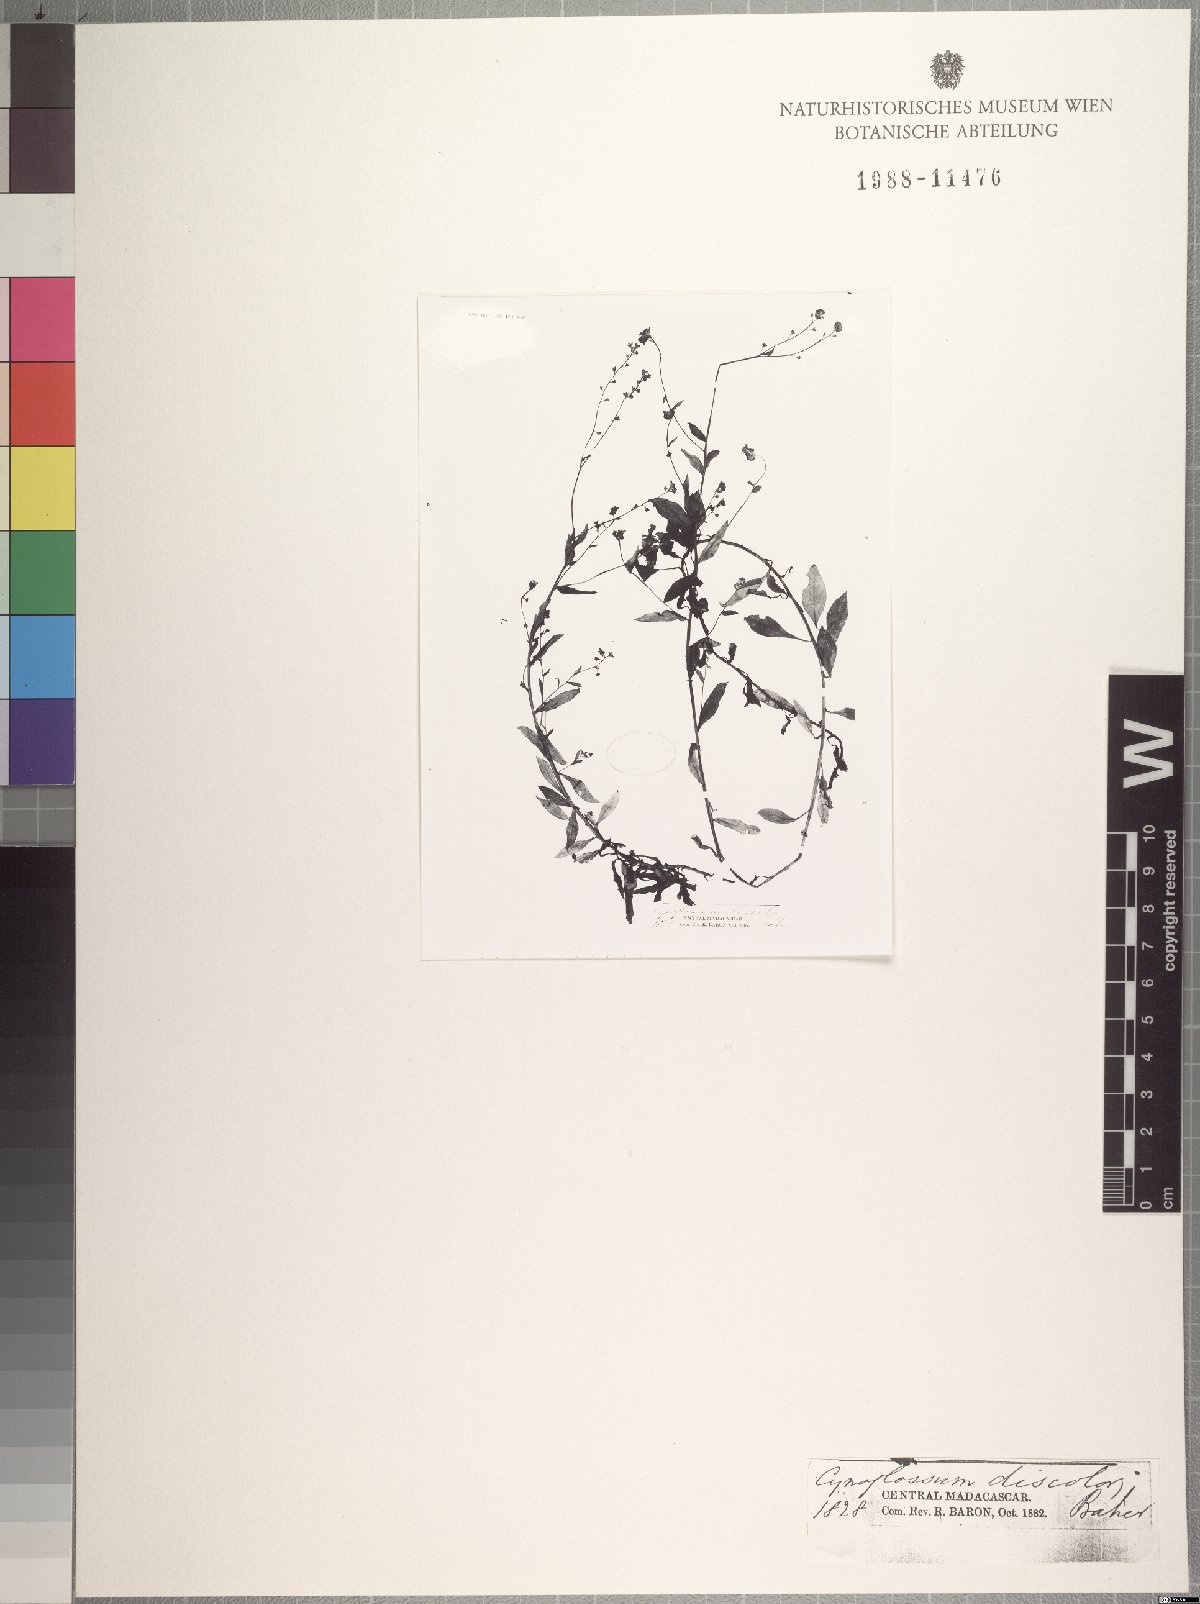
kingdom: Plantae
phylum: Tracheophyta
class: Magnoliopsida
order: Boraginales
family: Boraginaceae
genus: Cynoglossum
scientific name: Cynoglossum cernuum
